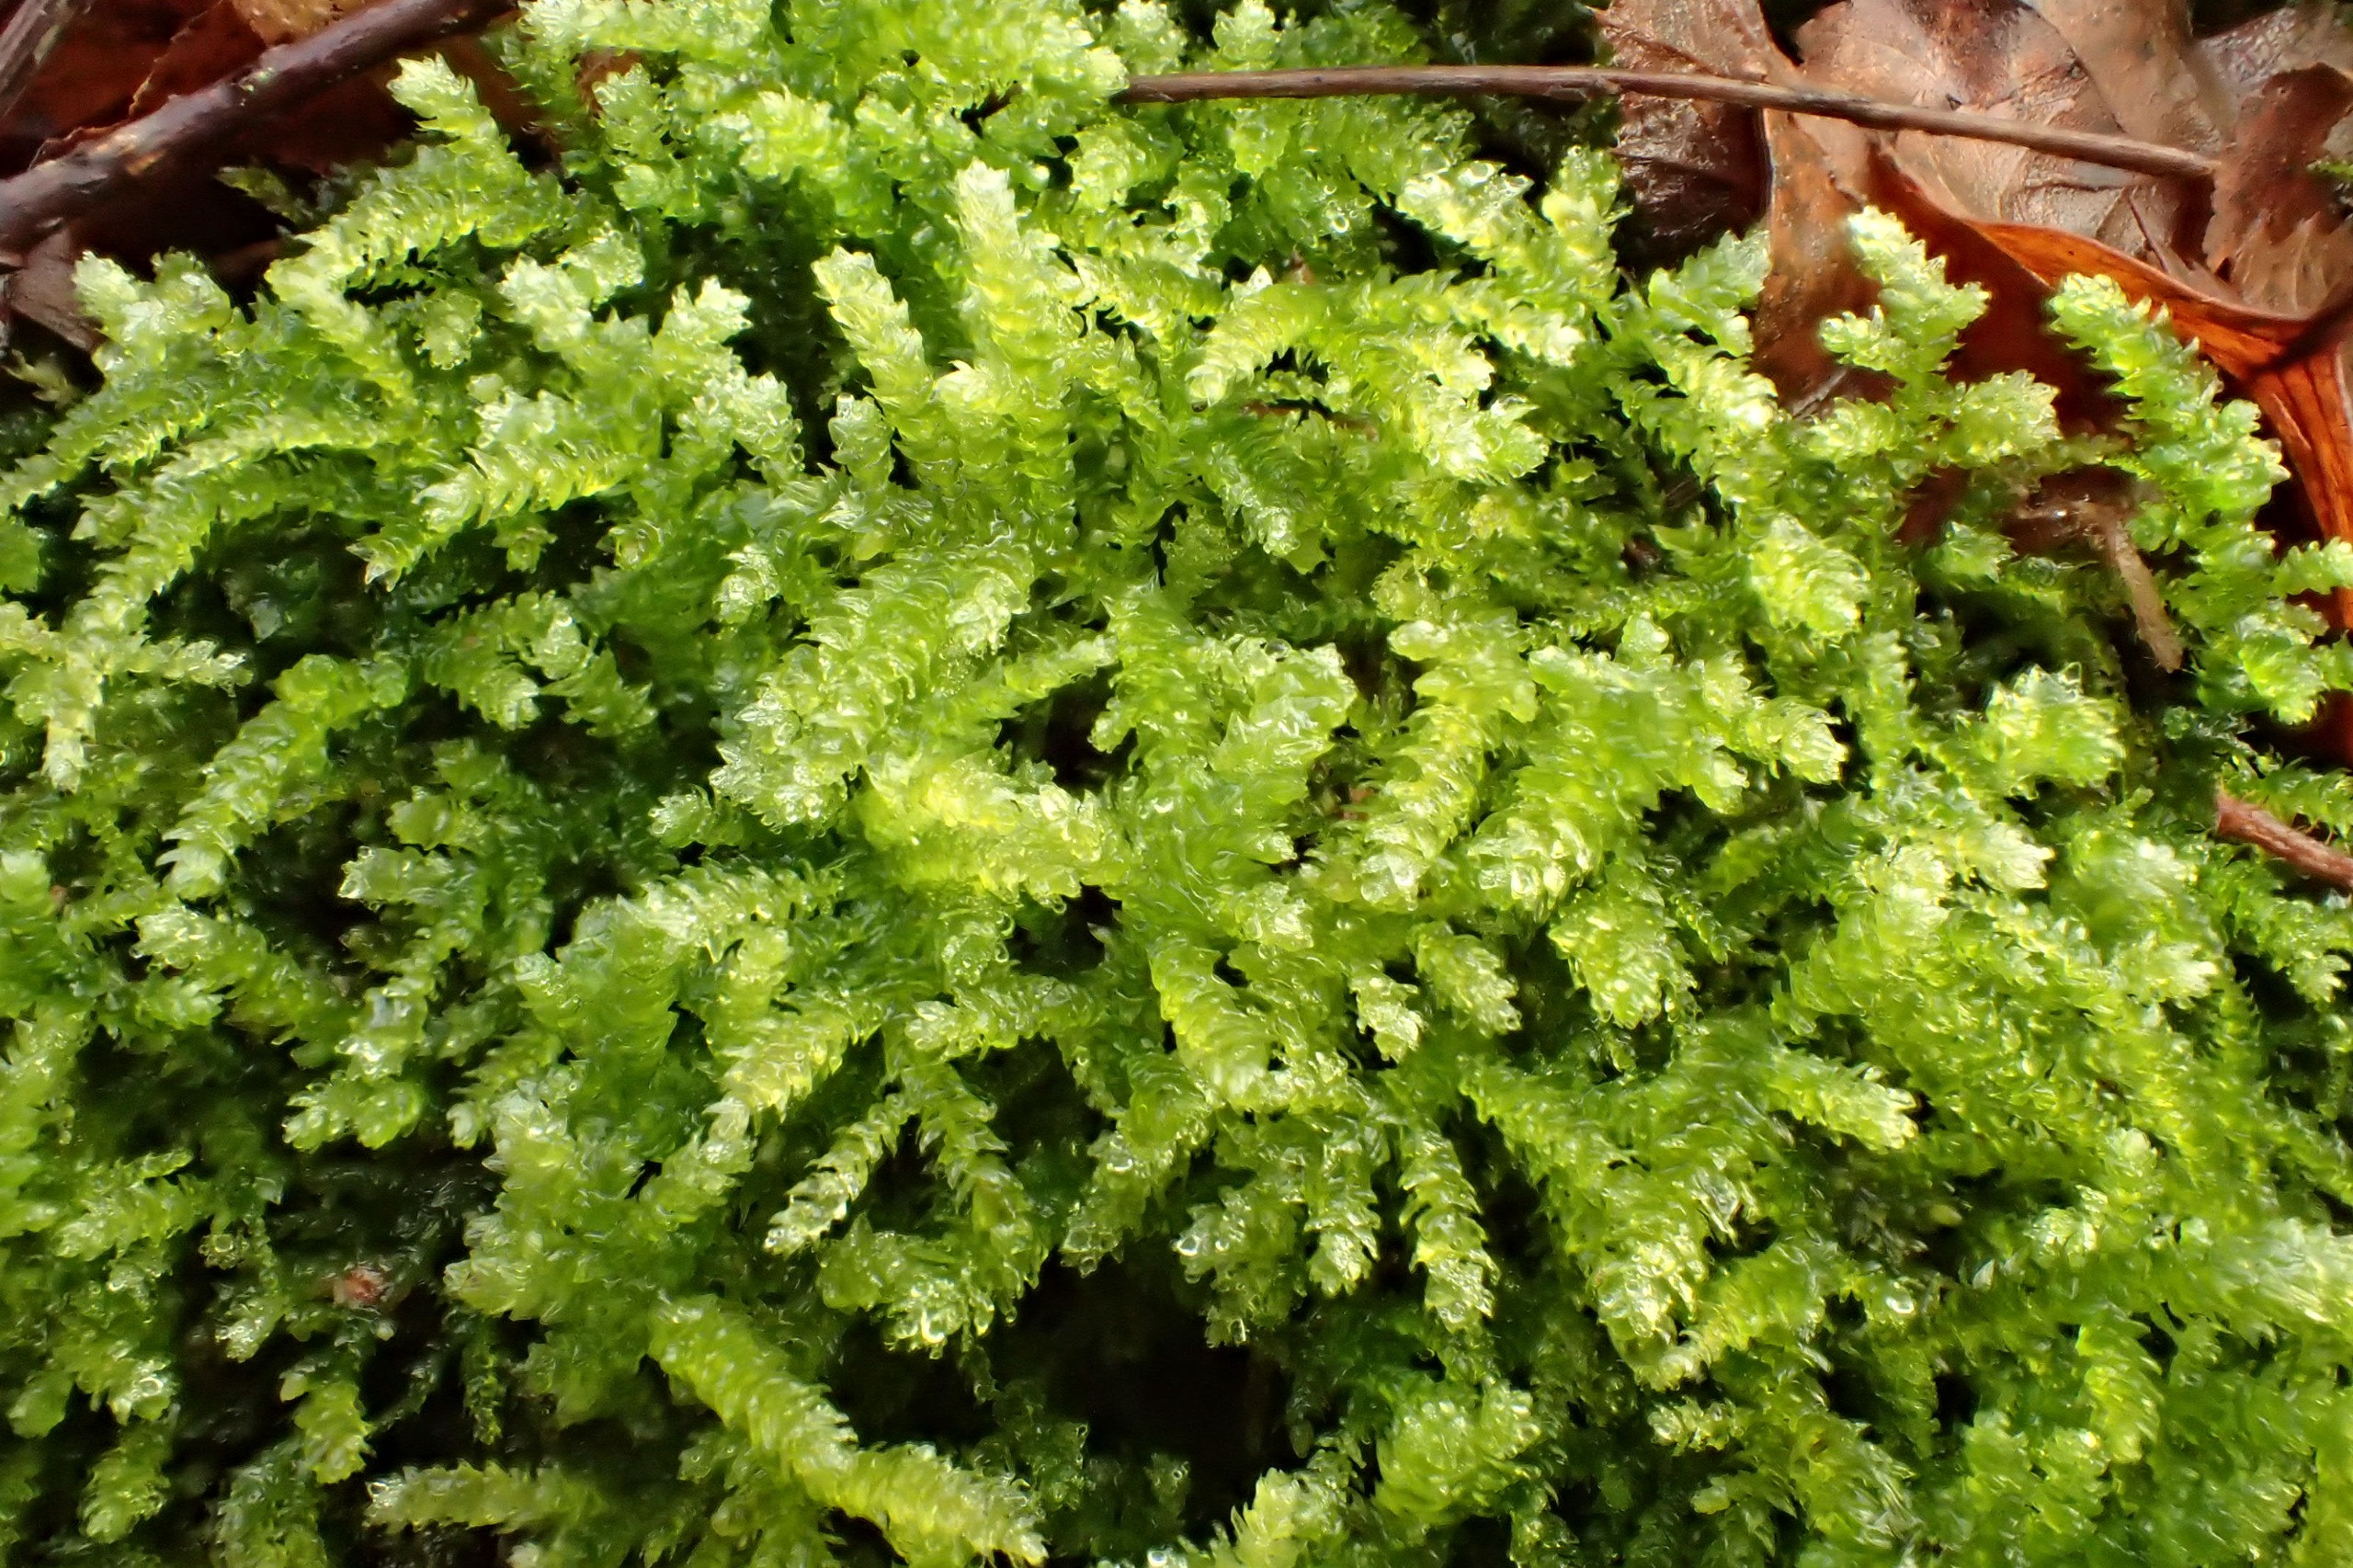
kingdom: Plantae
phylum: Bryophyta
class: Bryopsida
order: Hypnales
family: Brachytheciaceae
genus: Eurhynchium
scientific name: Eurhynchium angustirete
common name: Stor næbmos
